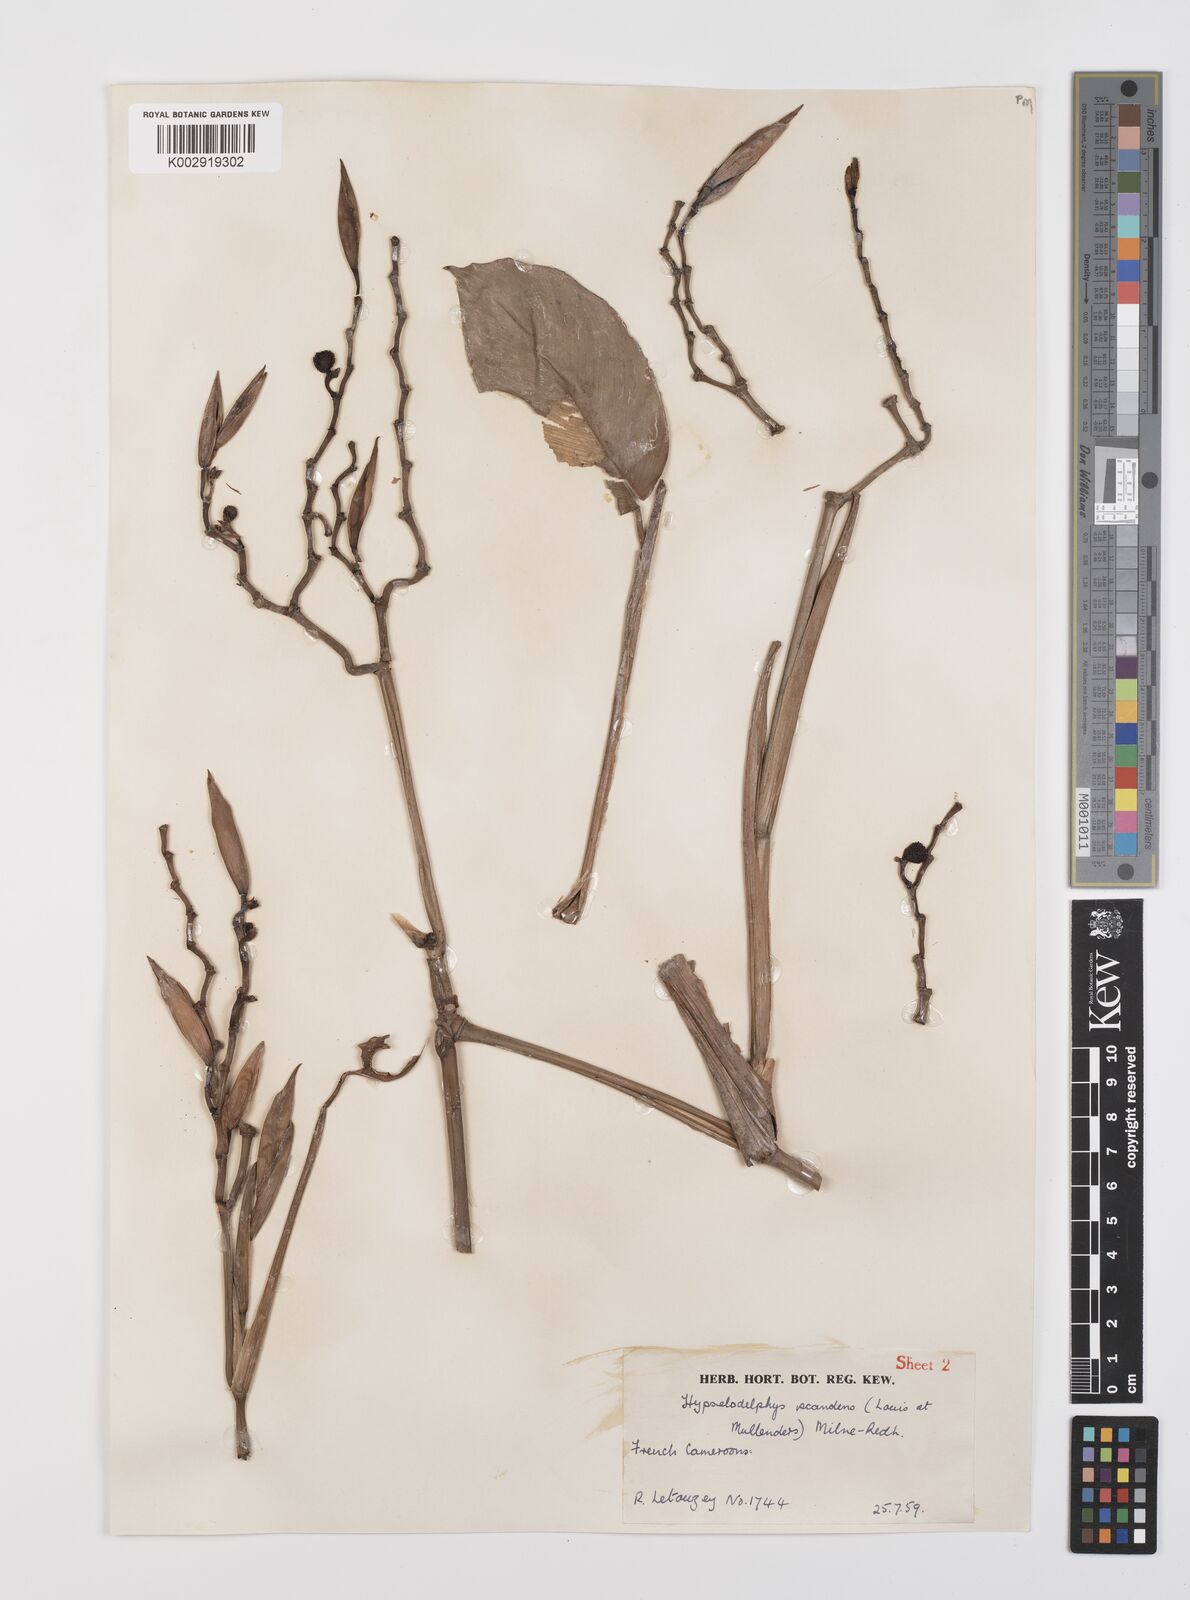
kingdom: Plantae
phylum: Tracheophyta
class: Liliopsida
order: Zingiberales
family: Marantaceae
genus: Hypselodelphys
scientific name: Hypselodelphys scandens
